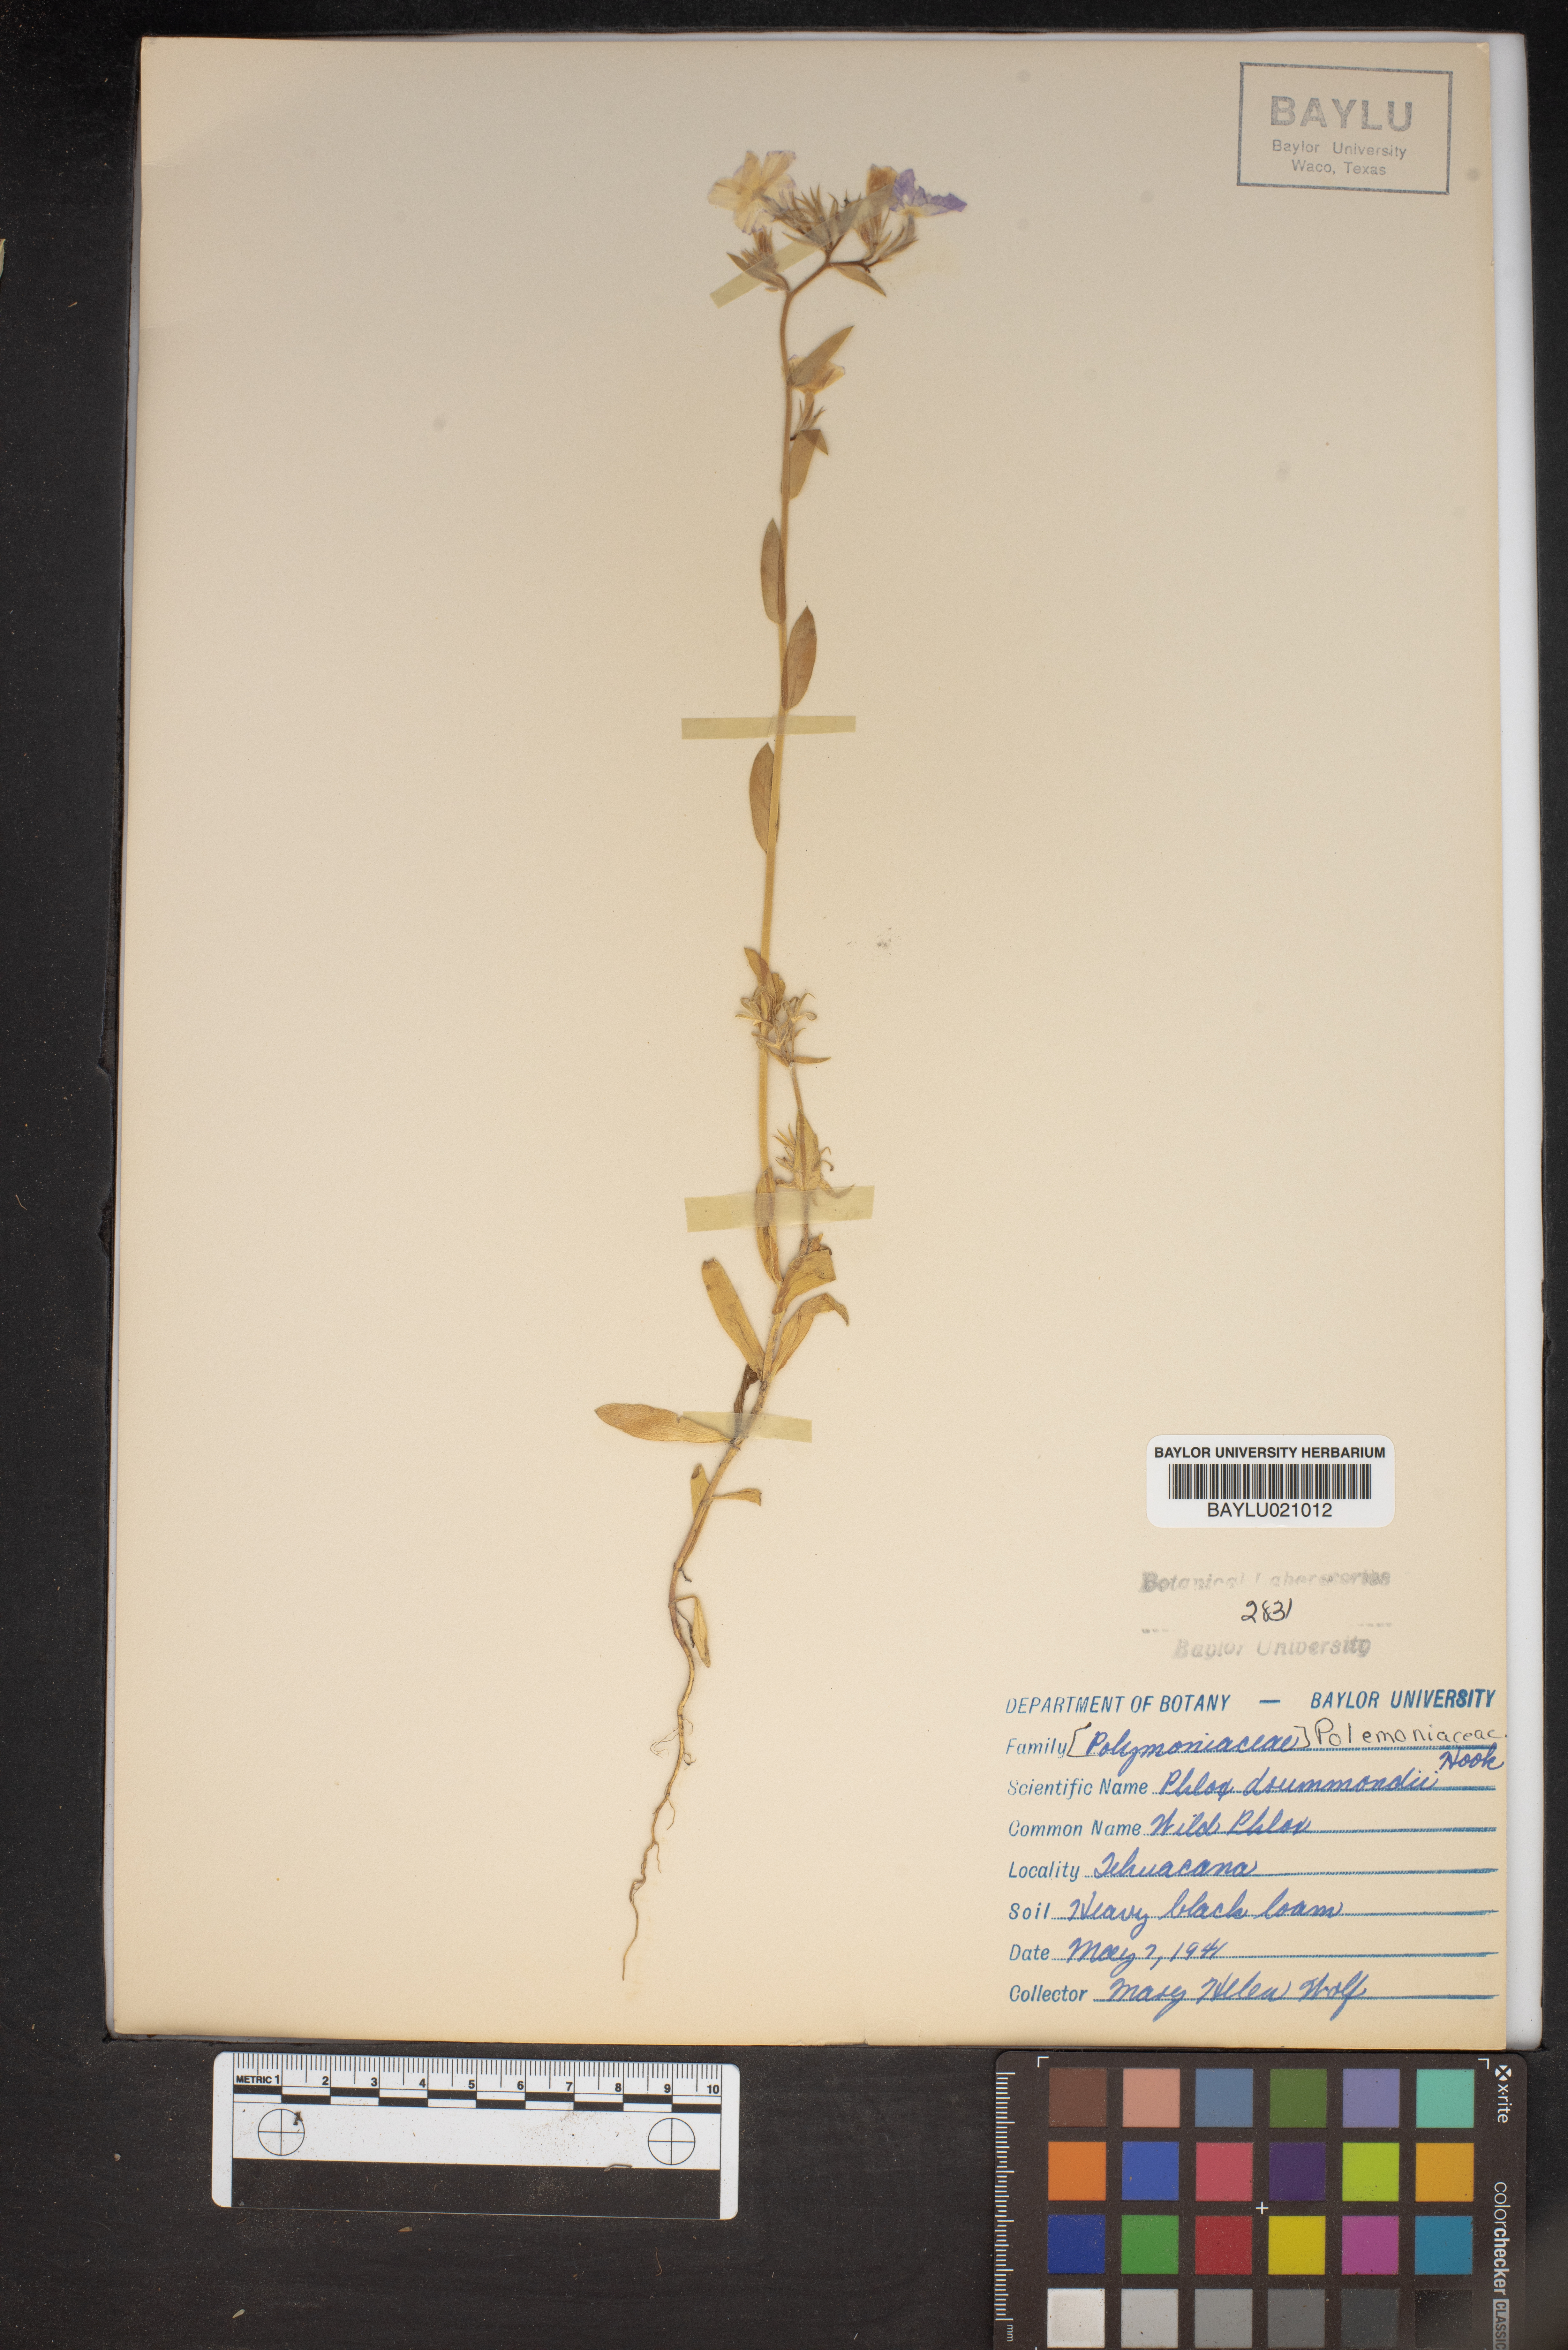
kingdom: Plantae
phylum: Tracheophyta
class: Magnoliopsida
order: Ericales
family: Polemoniaceae
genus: Phlox
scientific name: Phlox drummondii
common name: Drummond's phlox
